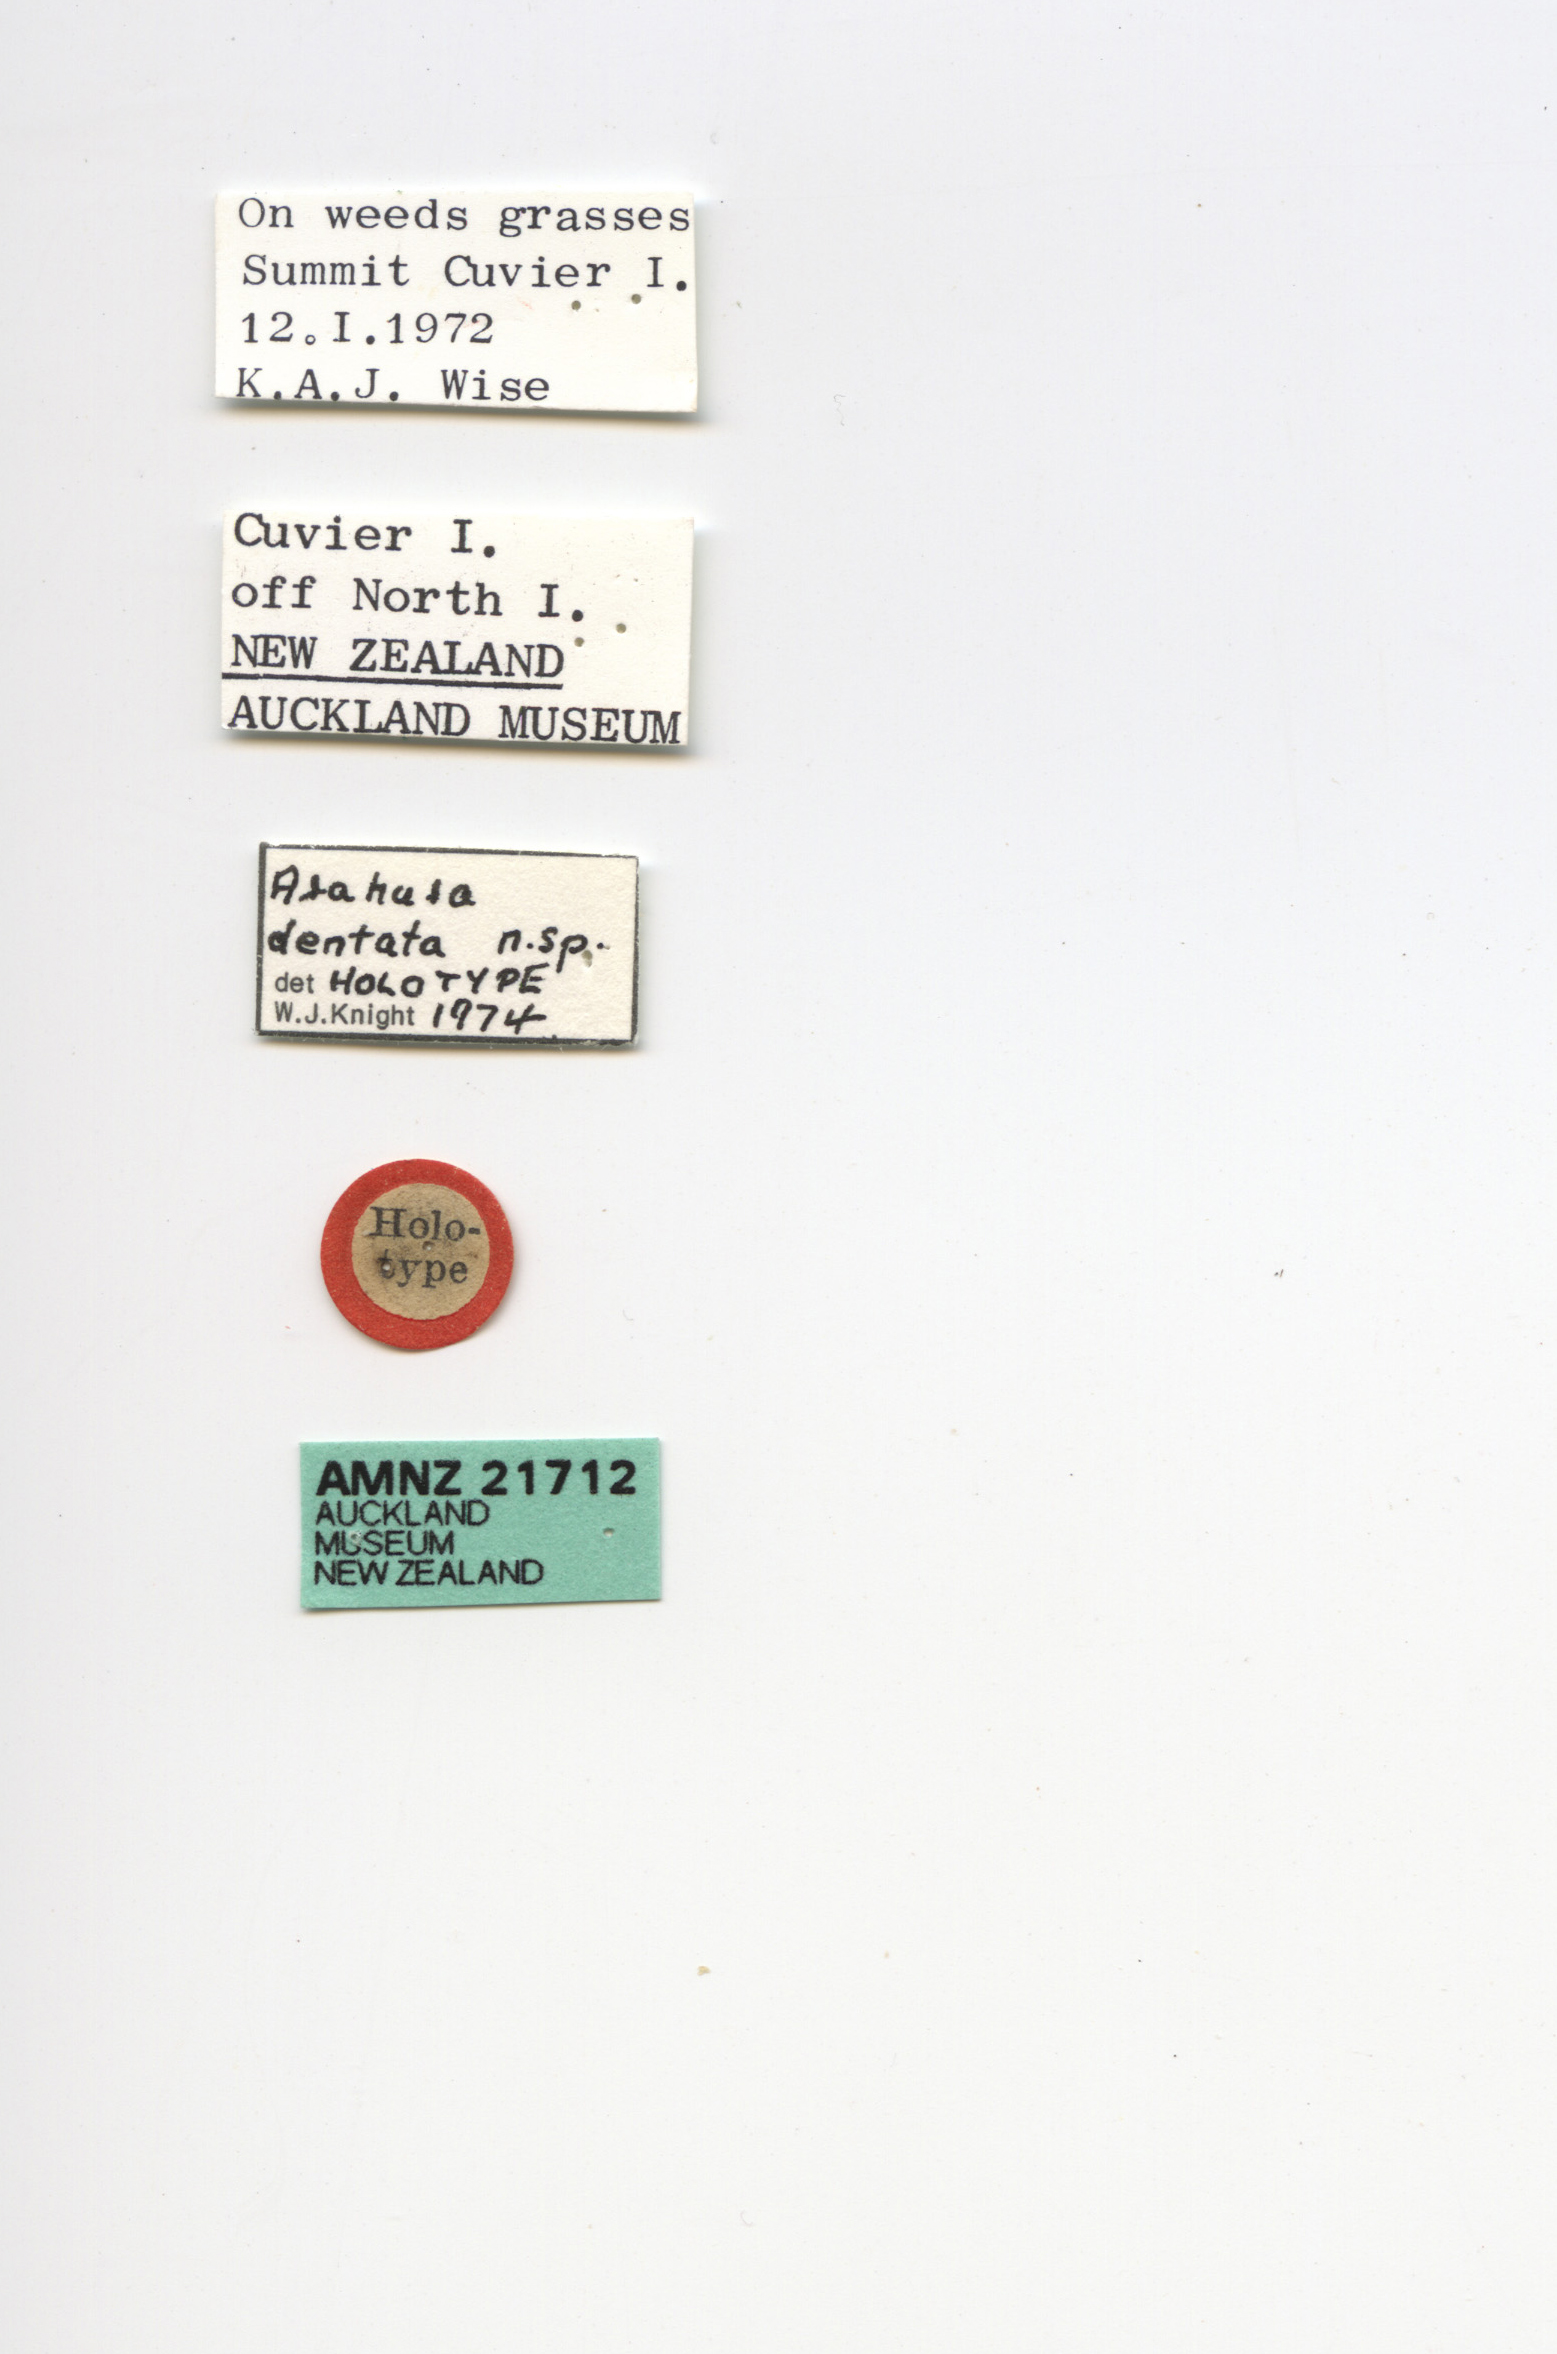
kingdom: Animalia
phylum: Arthropoda
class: Insecta
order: Hemiptera
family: Cicadellidae
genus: Arahura
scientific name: Arahura dentata
